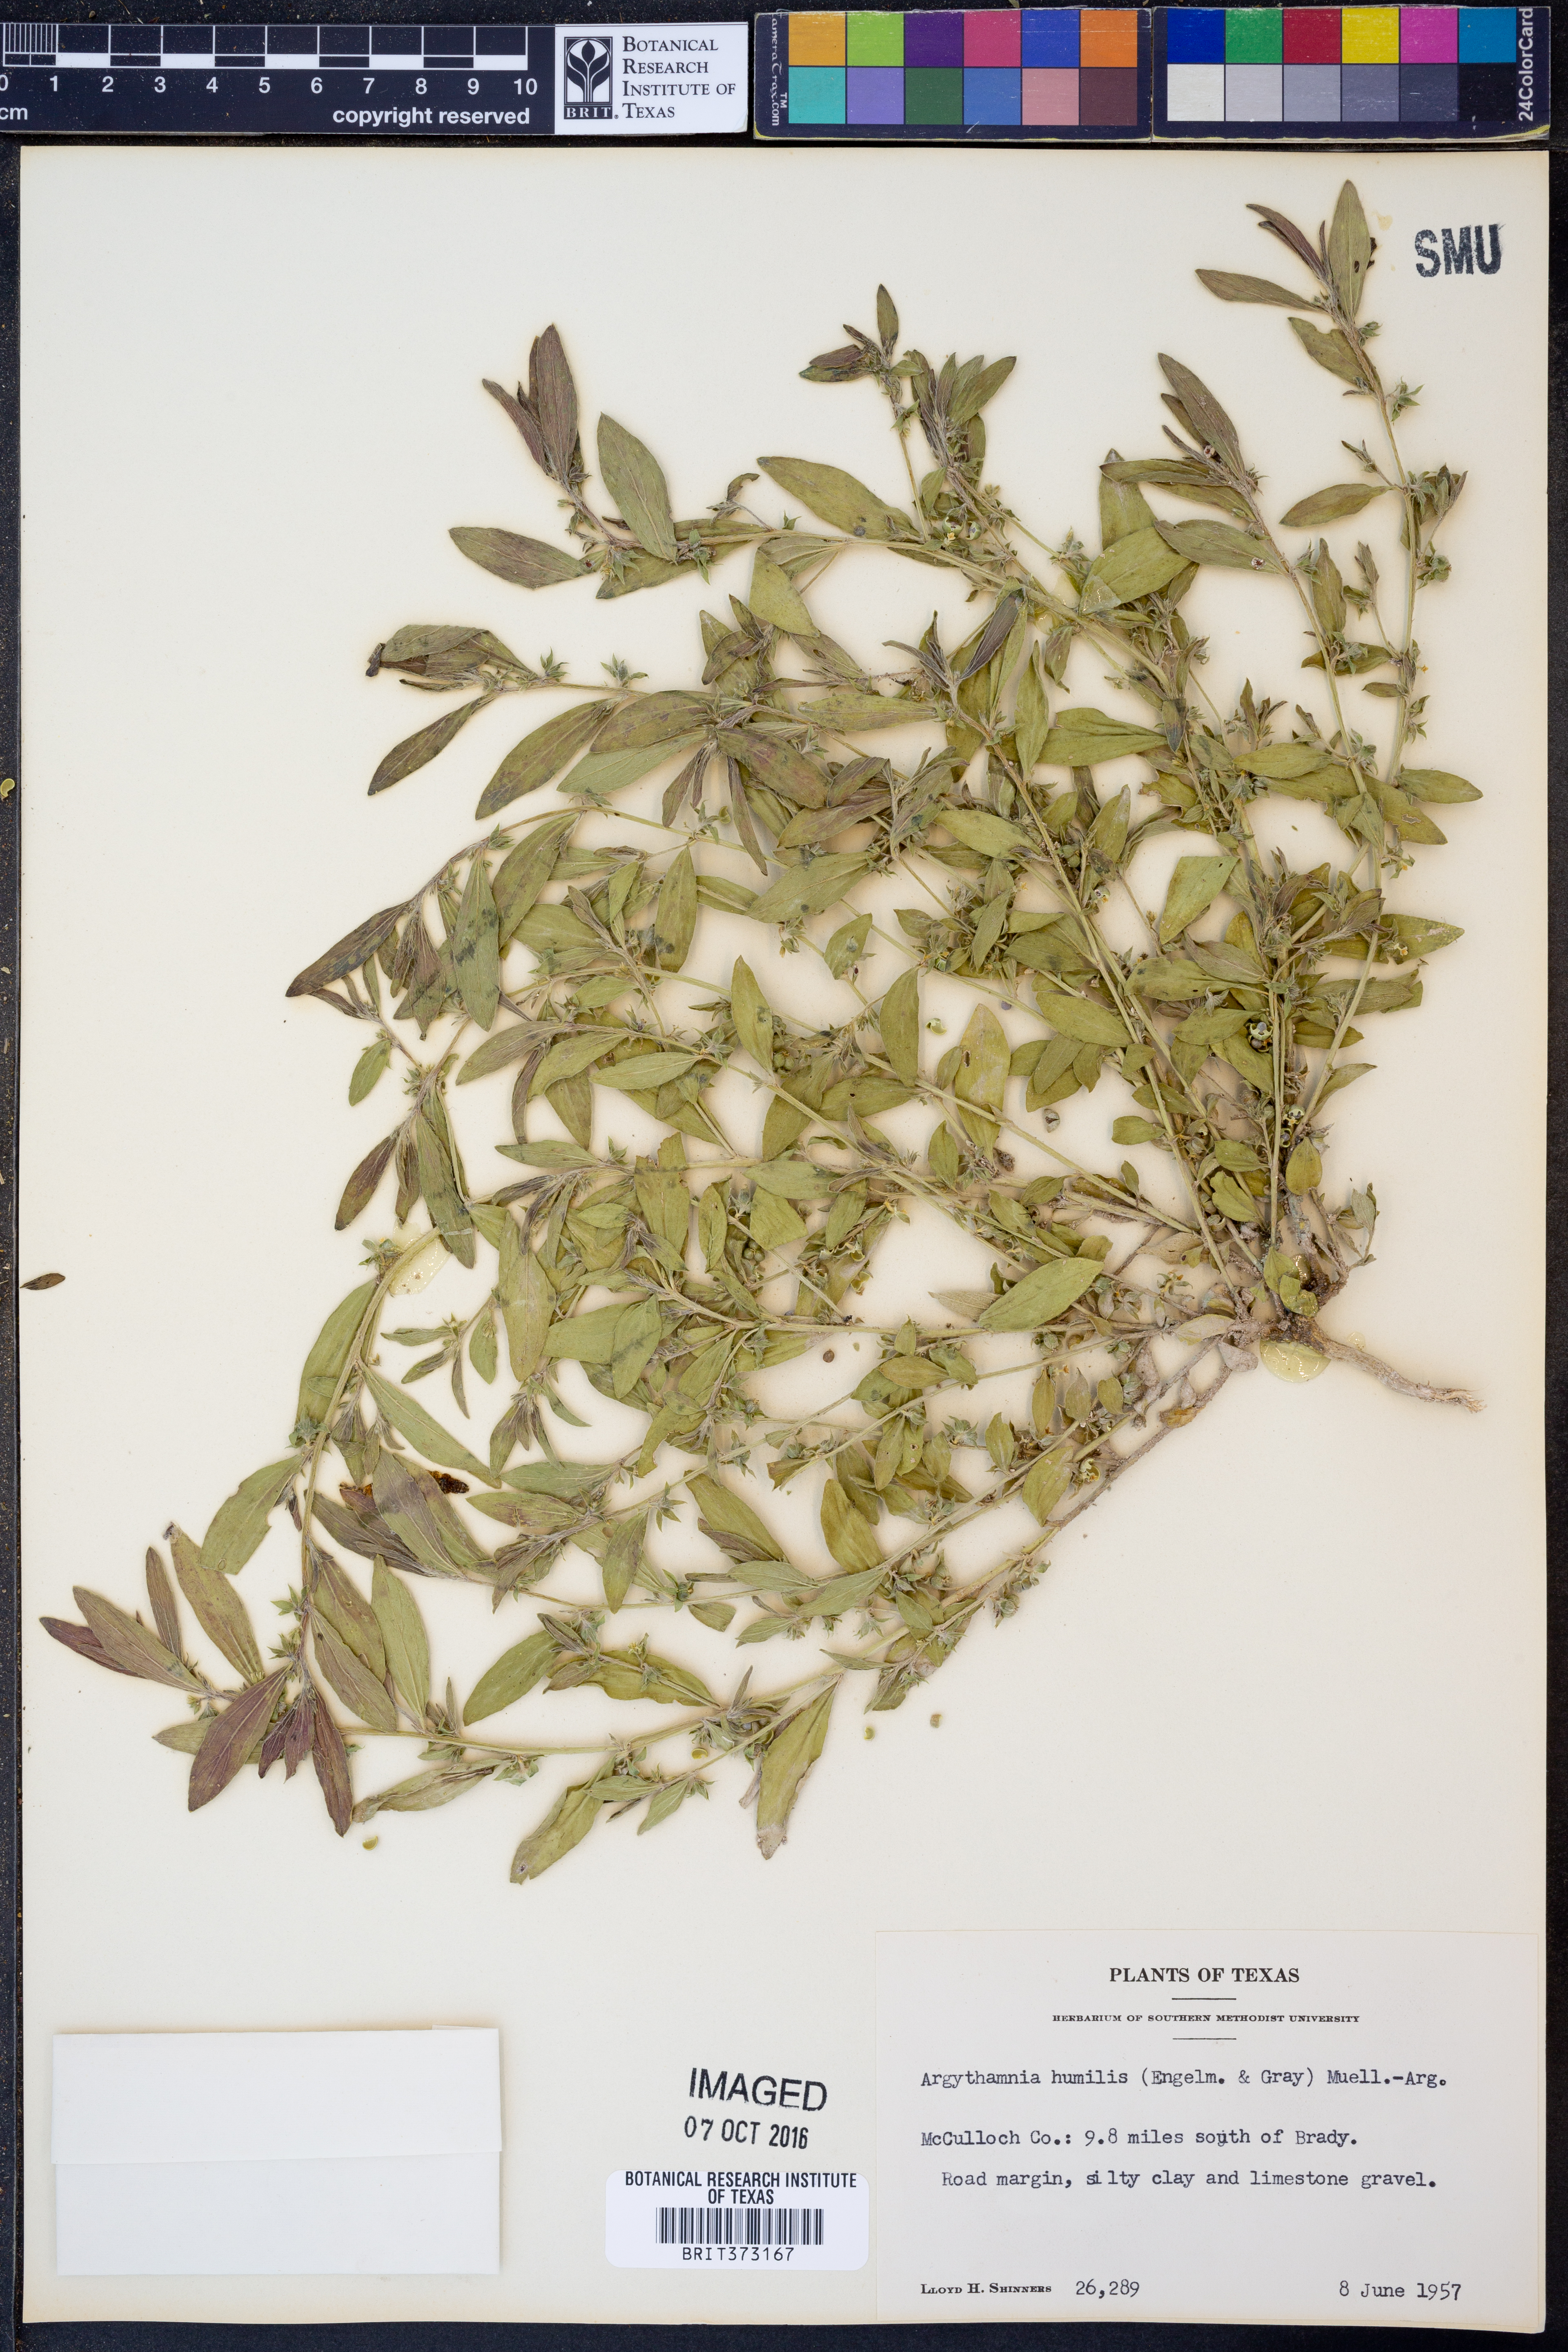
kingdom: Plantae
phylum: Tracheophyta
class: Magnoliopsida
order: Malpighiales
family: Euphorbiaceae
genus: Ditaxis
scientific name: Ditaxis humilis
